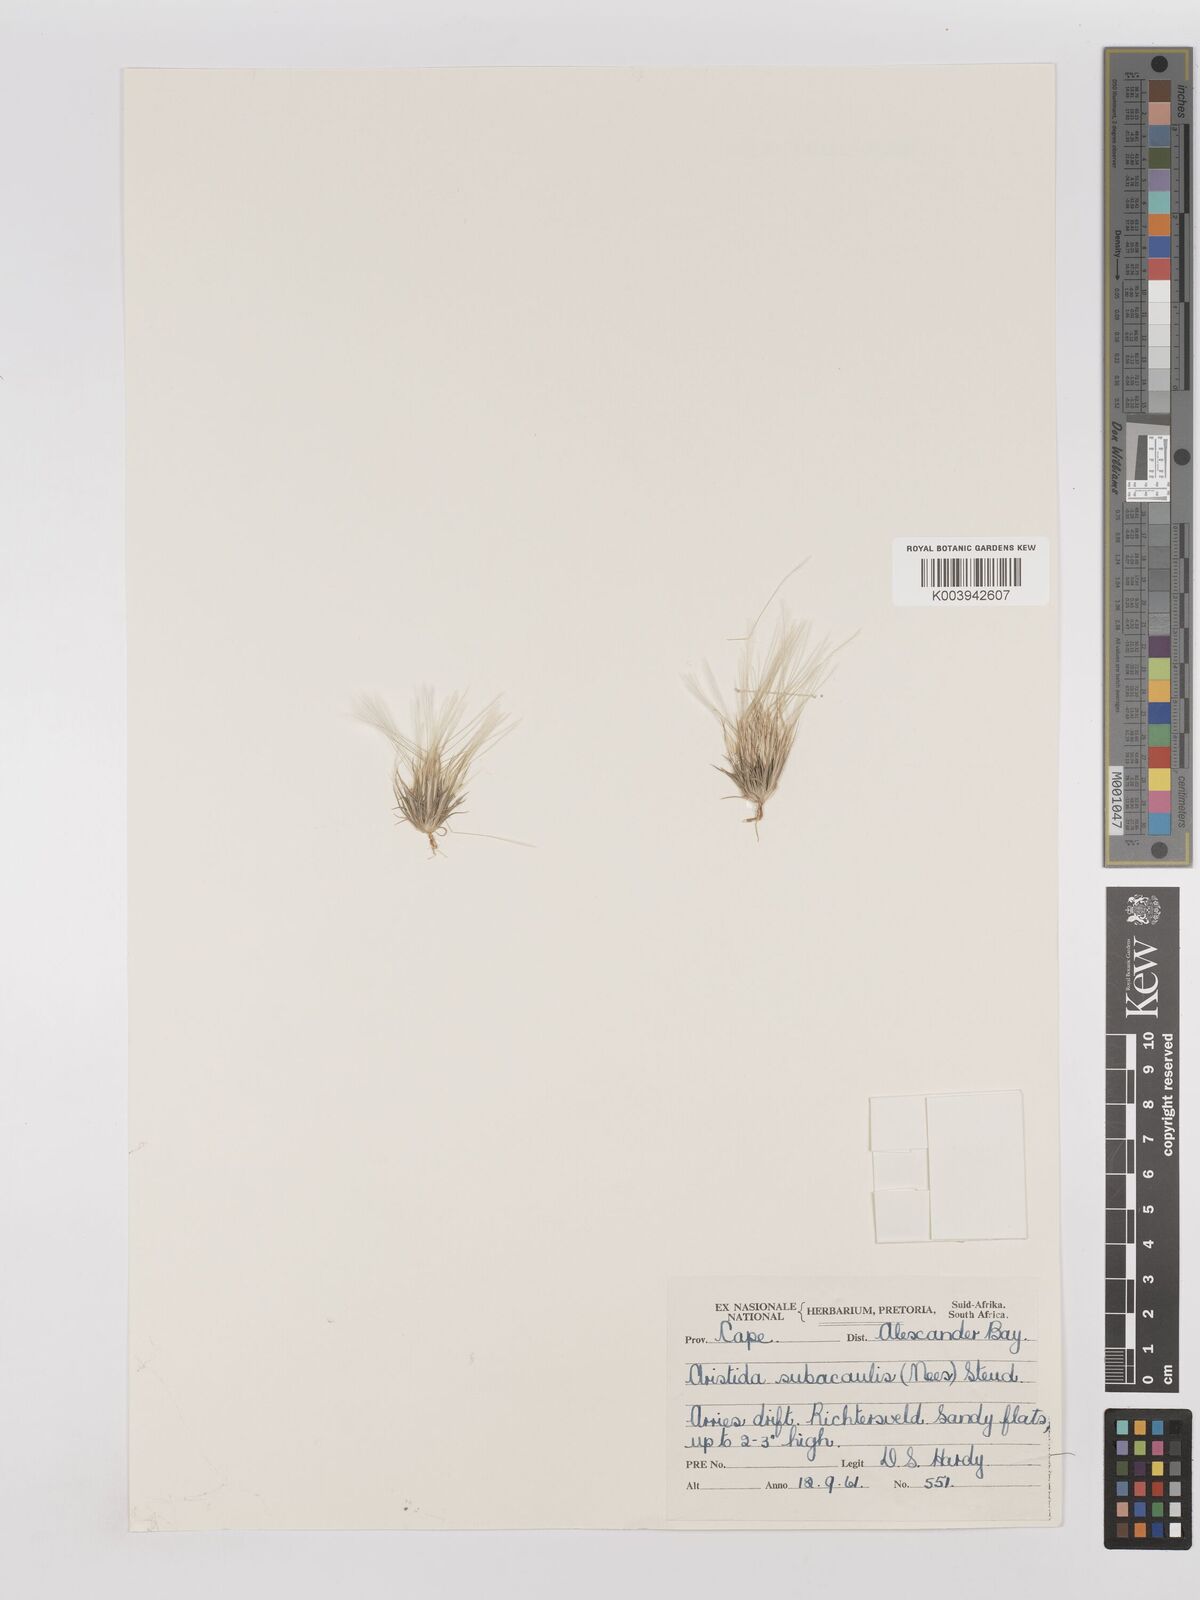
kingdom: Plantae
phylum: Tracheophyta
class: Liliopsida
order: Poales
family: Poaceae
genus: Stipagrostis
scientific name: Stipagrostis subacaulis
